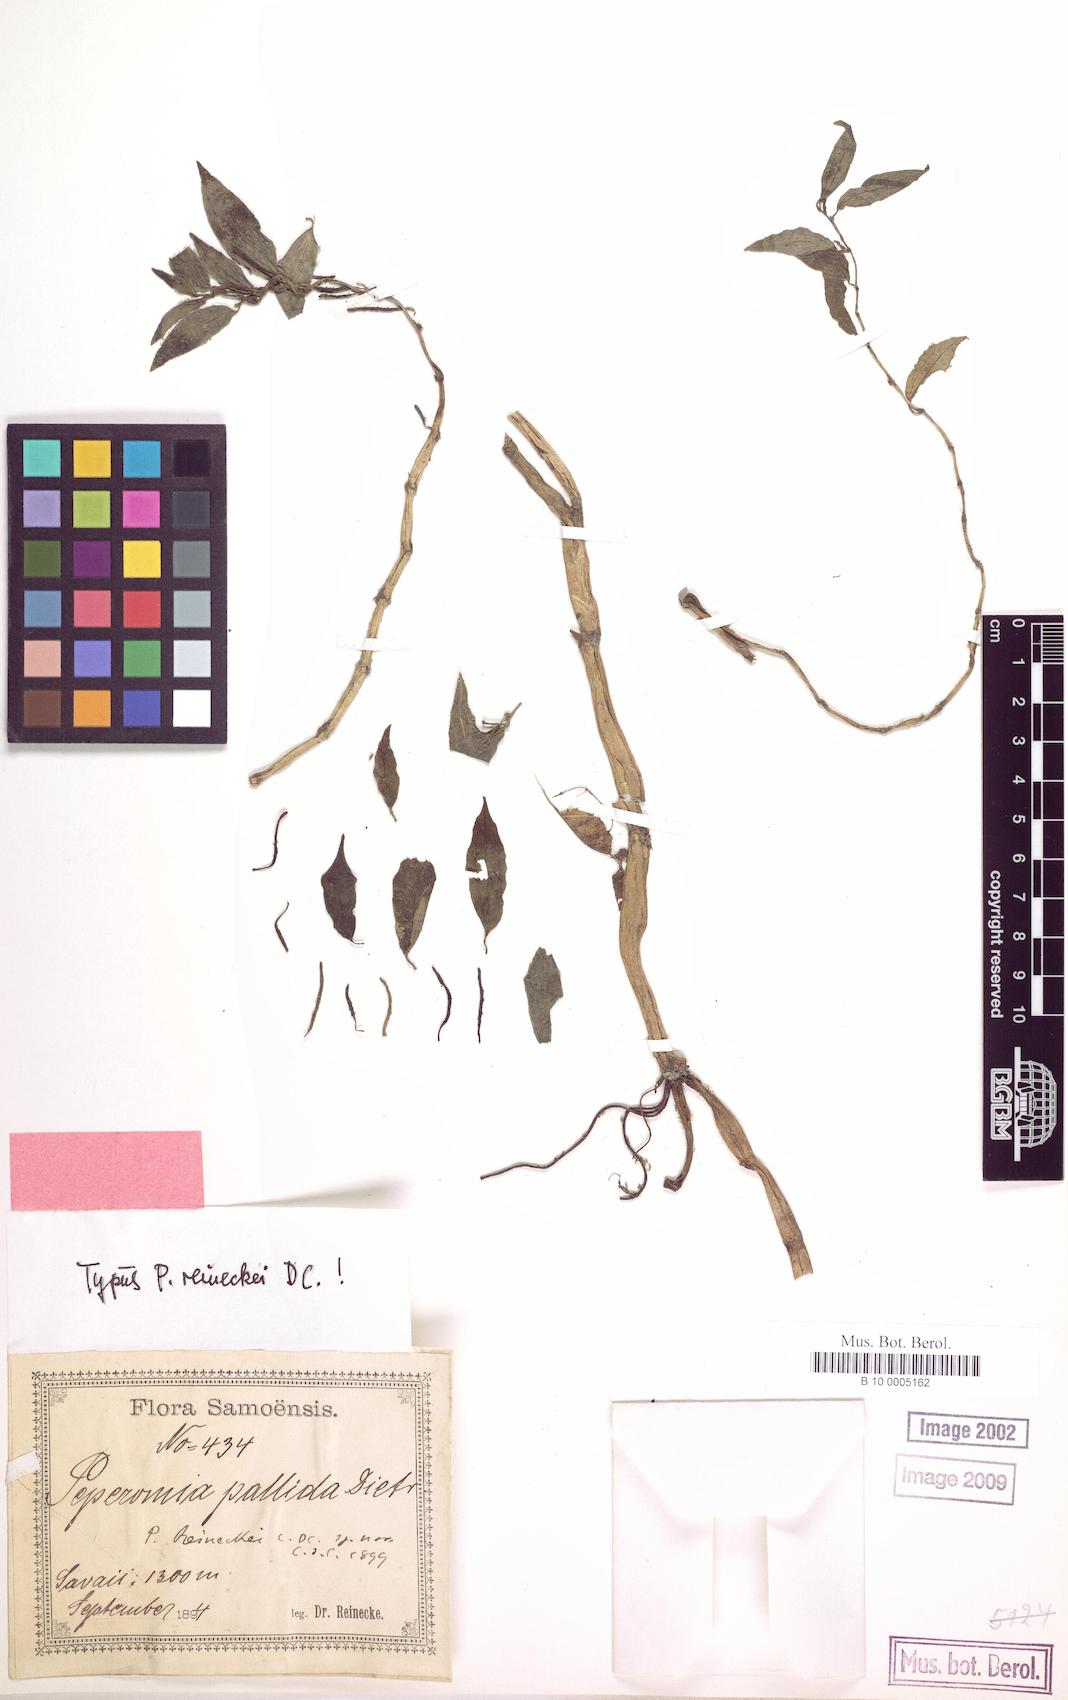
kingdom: Plantae
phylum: Tracheophyta
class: Magnoliopsida
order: Piperales
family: Piperaceae
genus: Peperomia
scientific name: Peperomia reineckei
